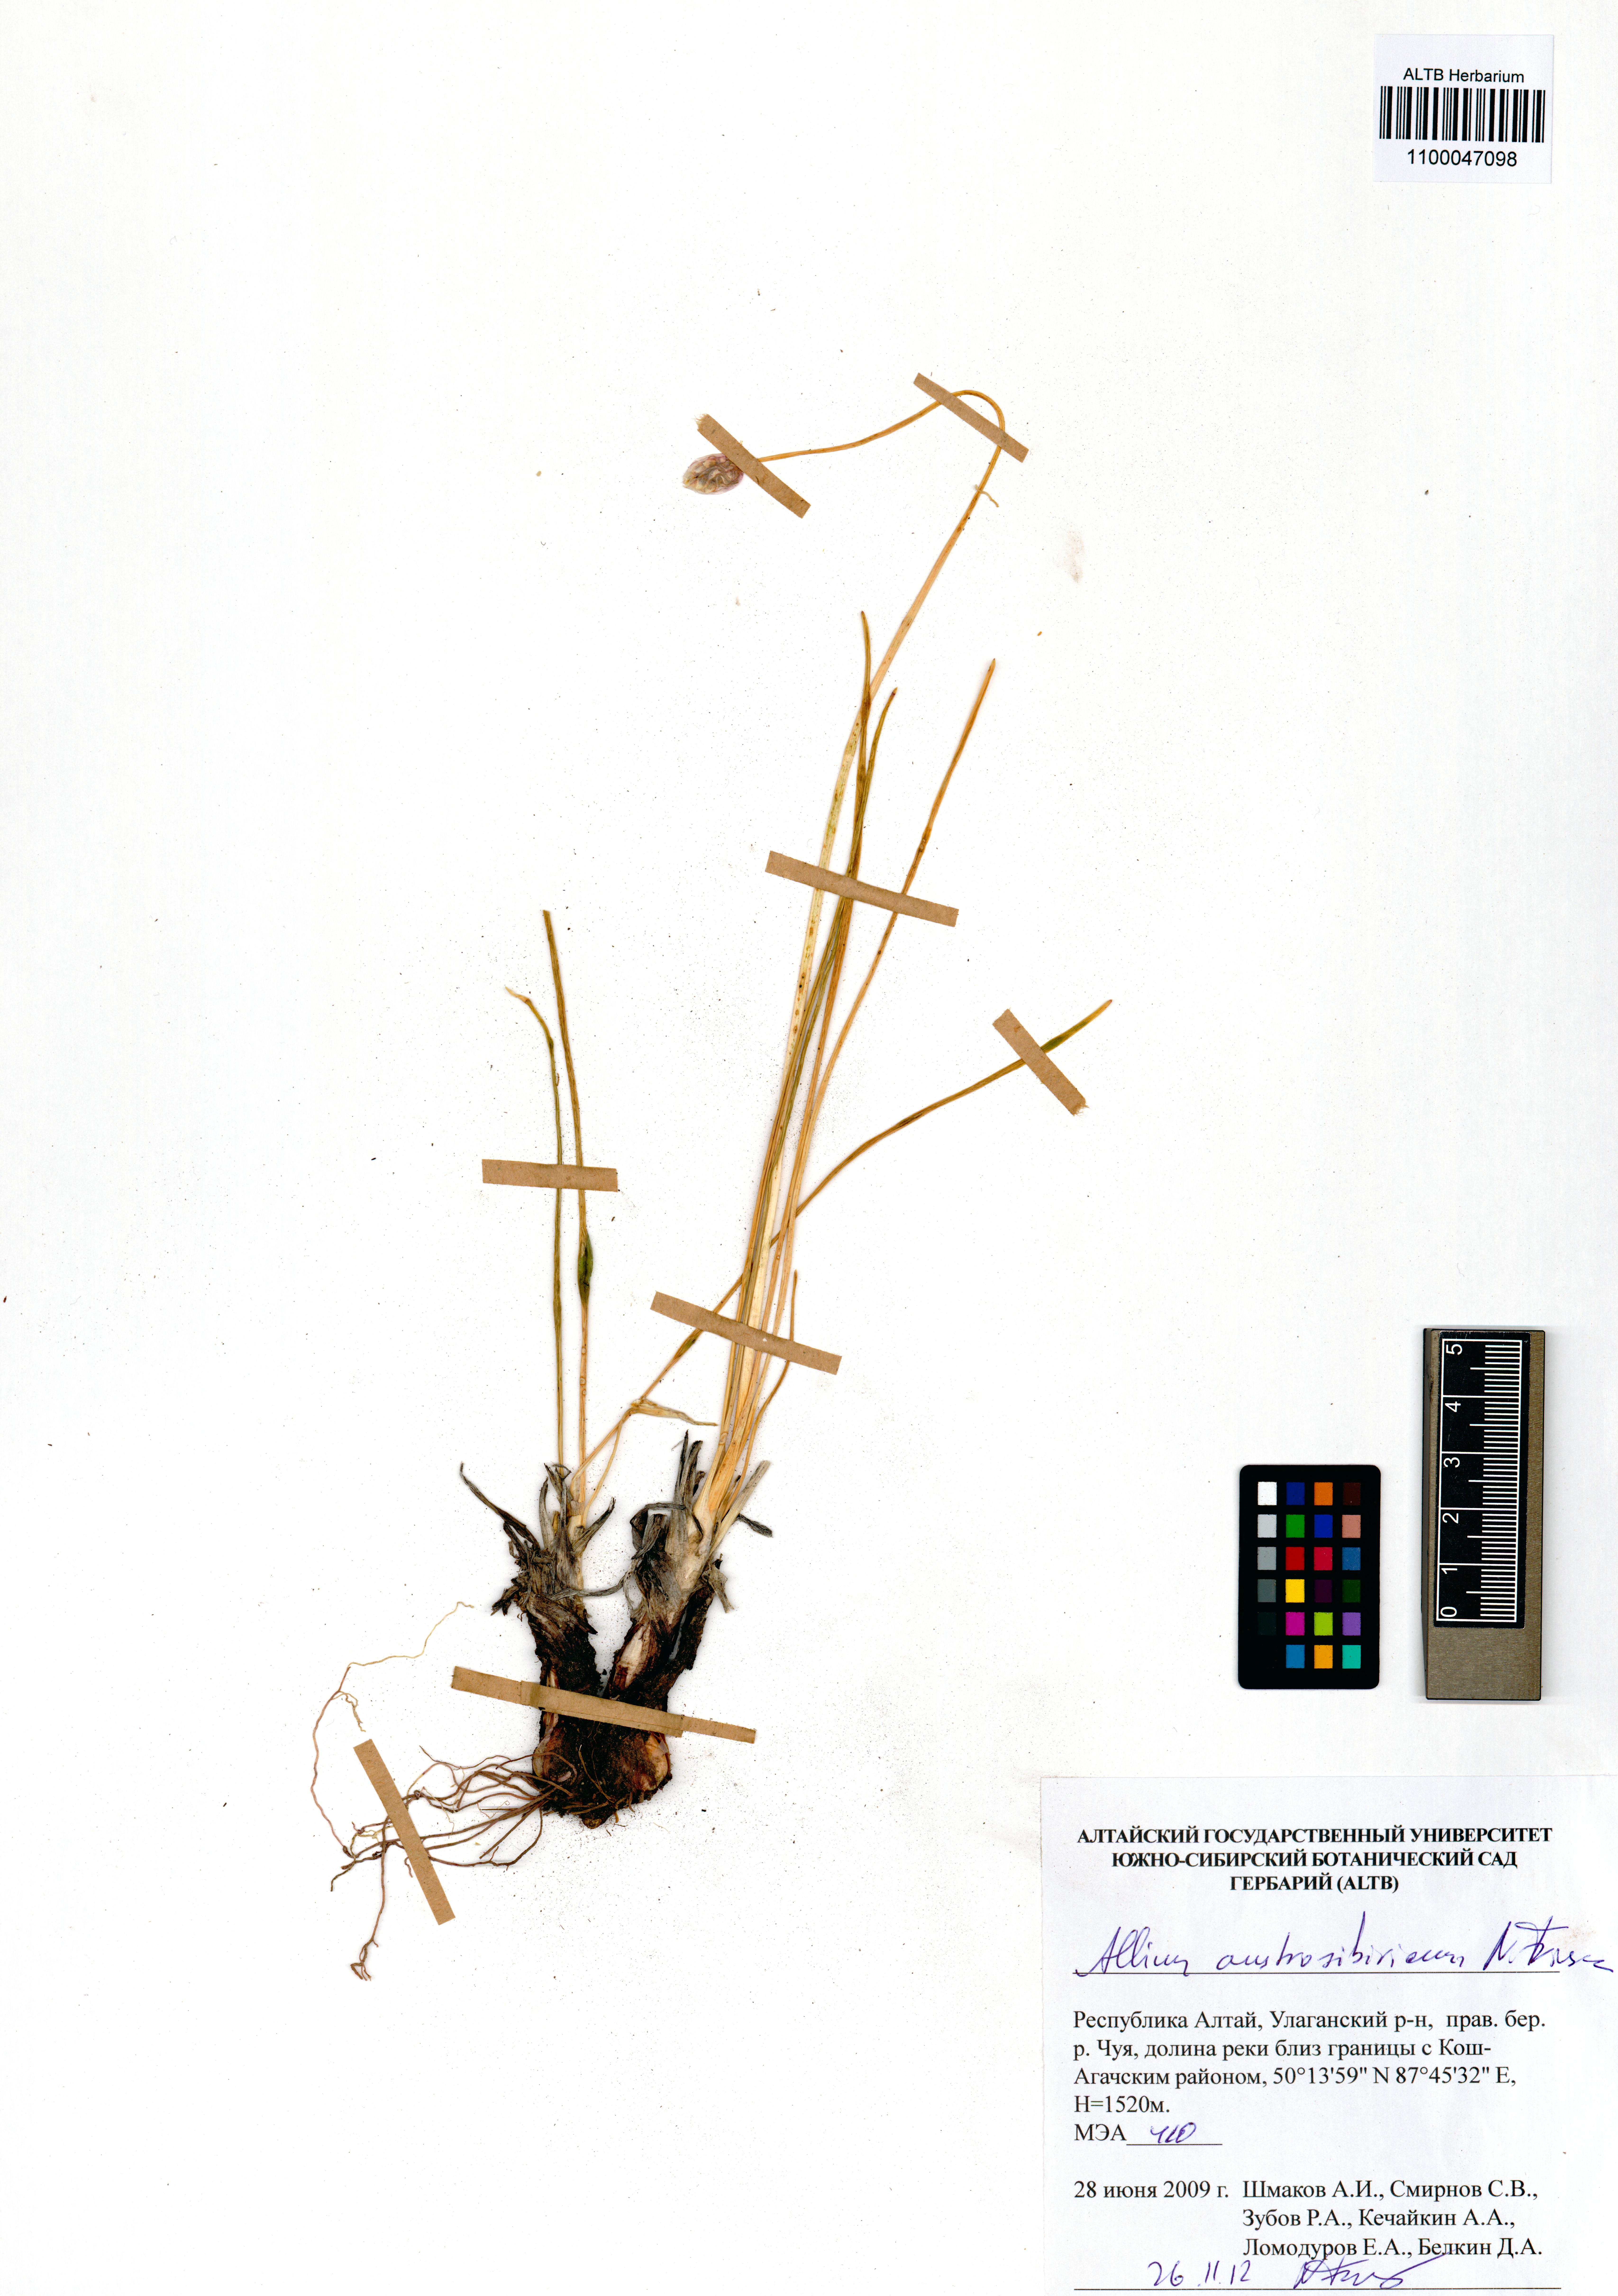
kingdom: Plantae
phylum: Tracheophyta
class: Liliopsida
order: Asparagales
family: Amaryllidaceae
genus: Allium
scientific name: Allium austrosibiricum
